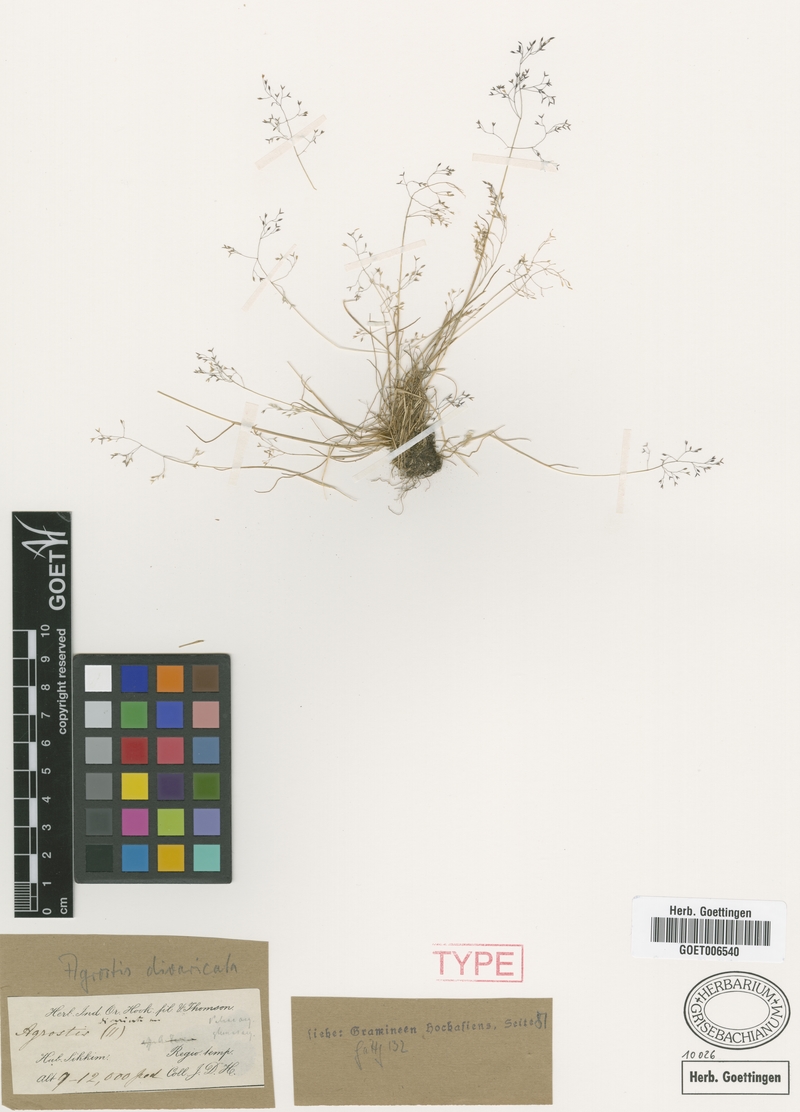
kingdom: Plantae
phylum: Tracheophyta
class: Liliopsida
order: Poales
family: Poaceae
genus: Agrostis
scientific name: Agrostis sikkimensis
